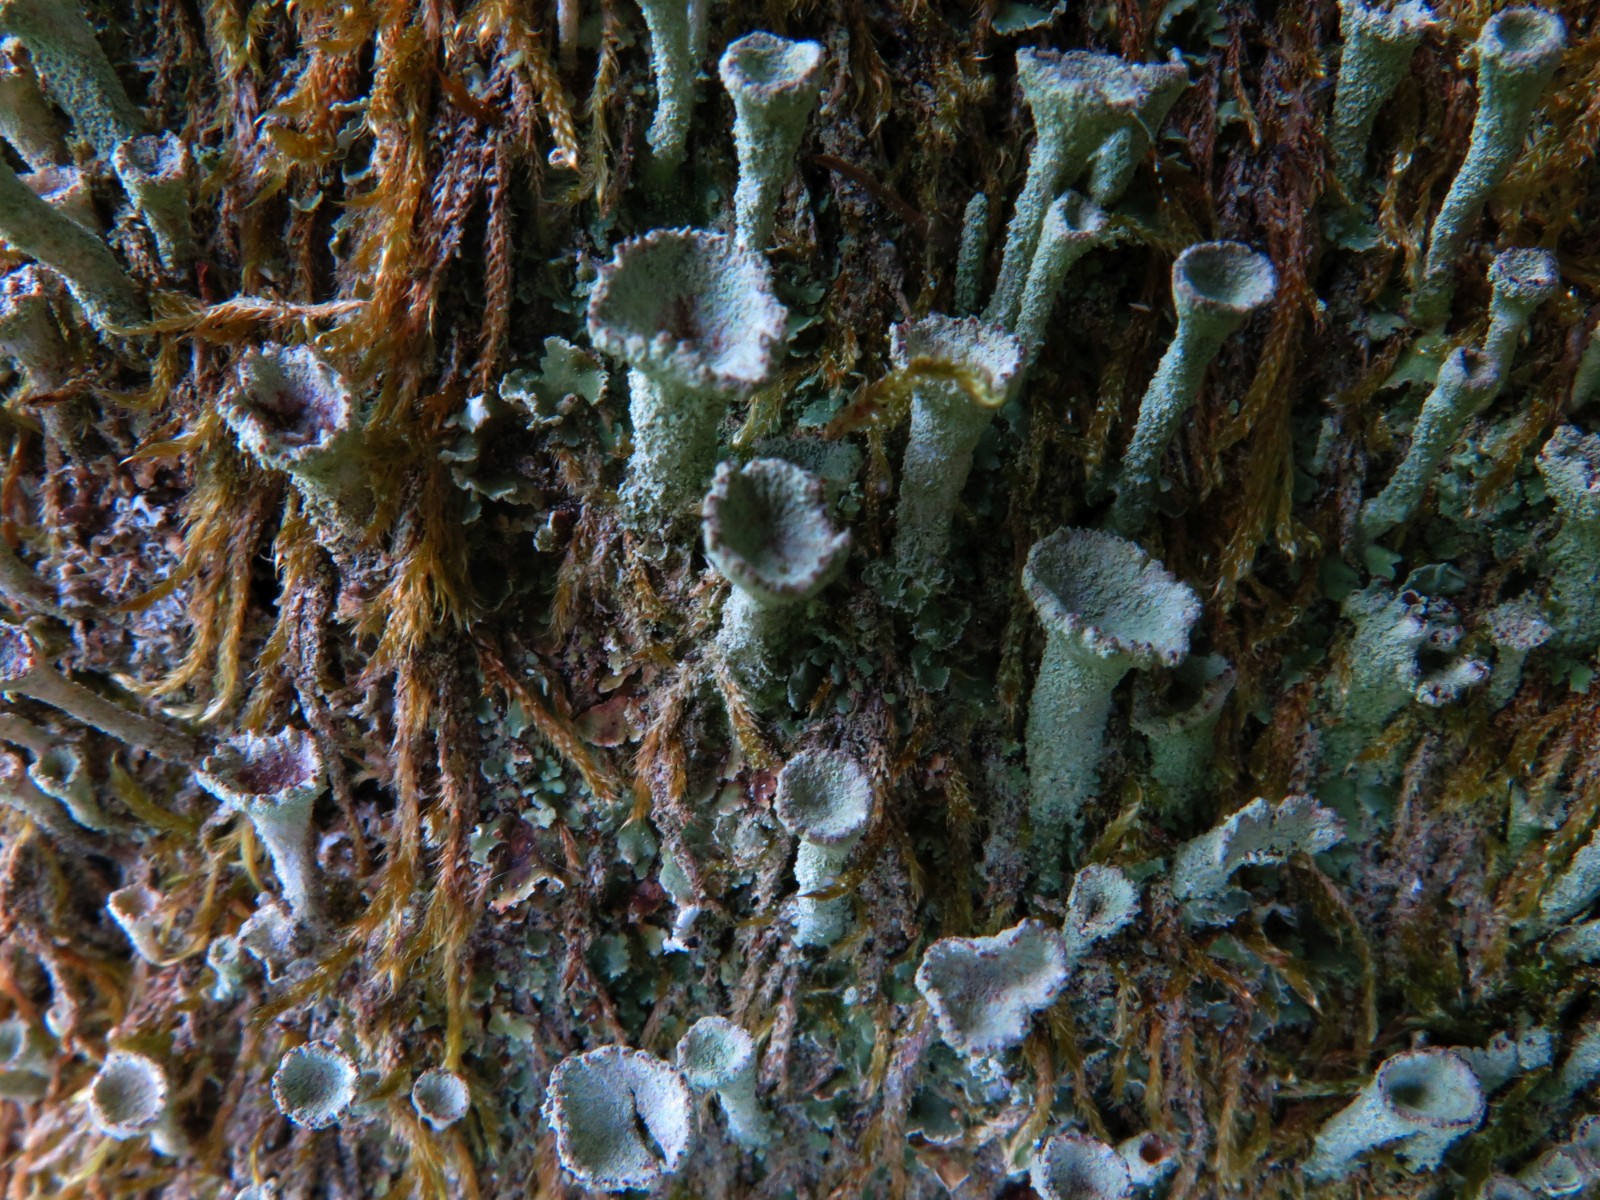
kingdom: Fungi
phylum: Ascomycota
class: Lecanoromycetes
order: Lecanorales
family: Cladoniaceae
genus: Cladonia
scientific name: Cladonia
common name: brungrøn bægerlav
